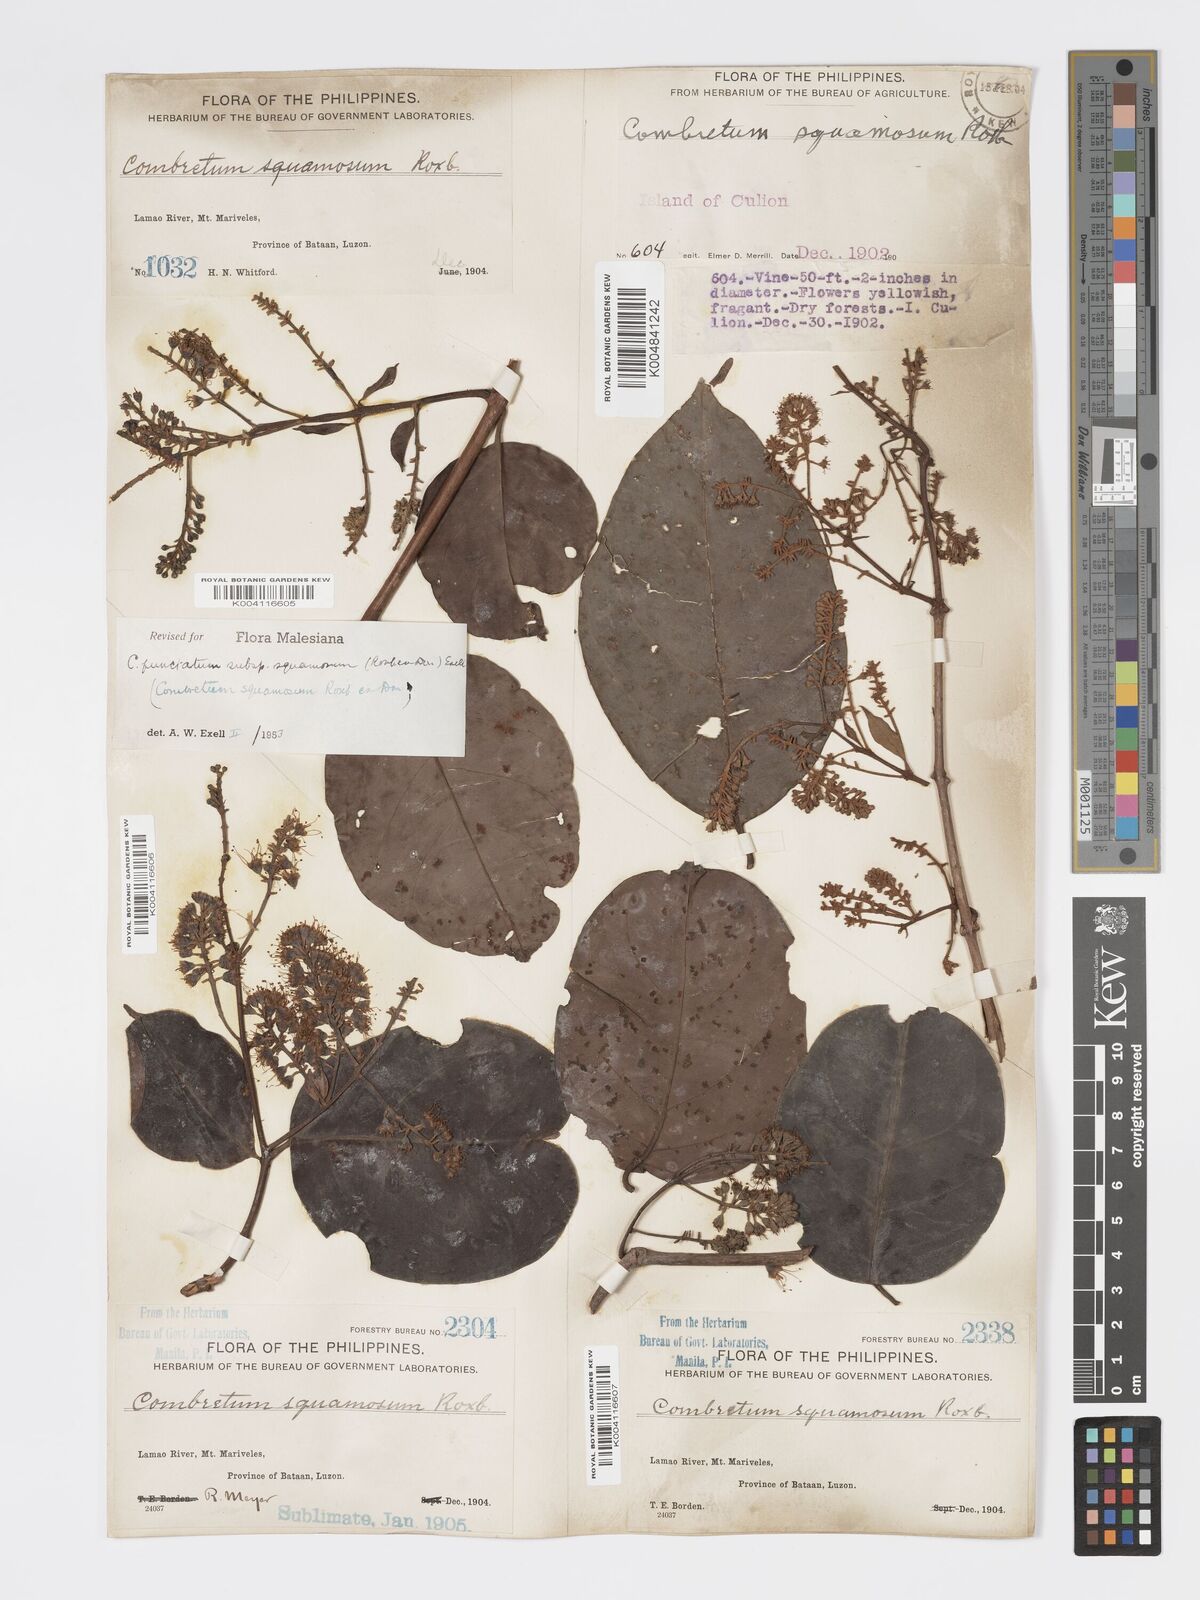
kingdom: Plantae
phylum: Tracheophyta
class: Magnoliopsida
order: Myrtales
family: Combretaceae
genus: Combretum
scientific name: Combretum
